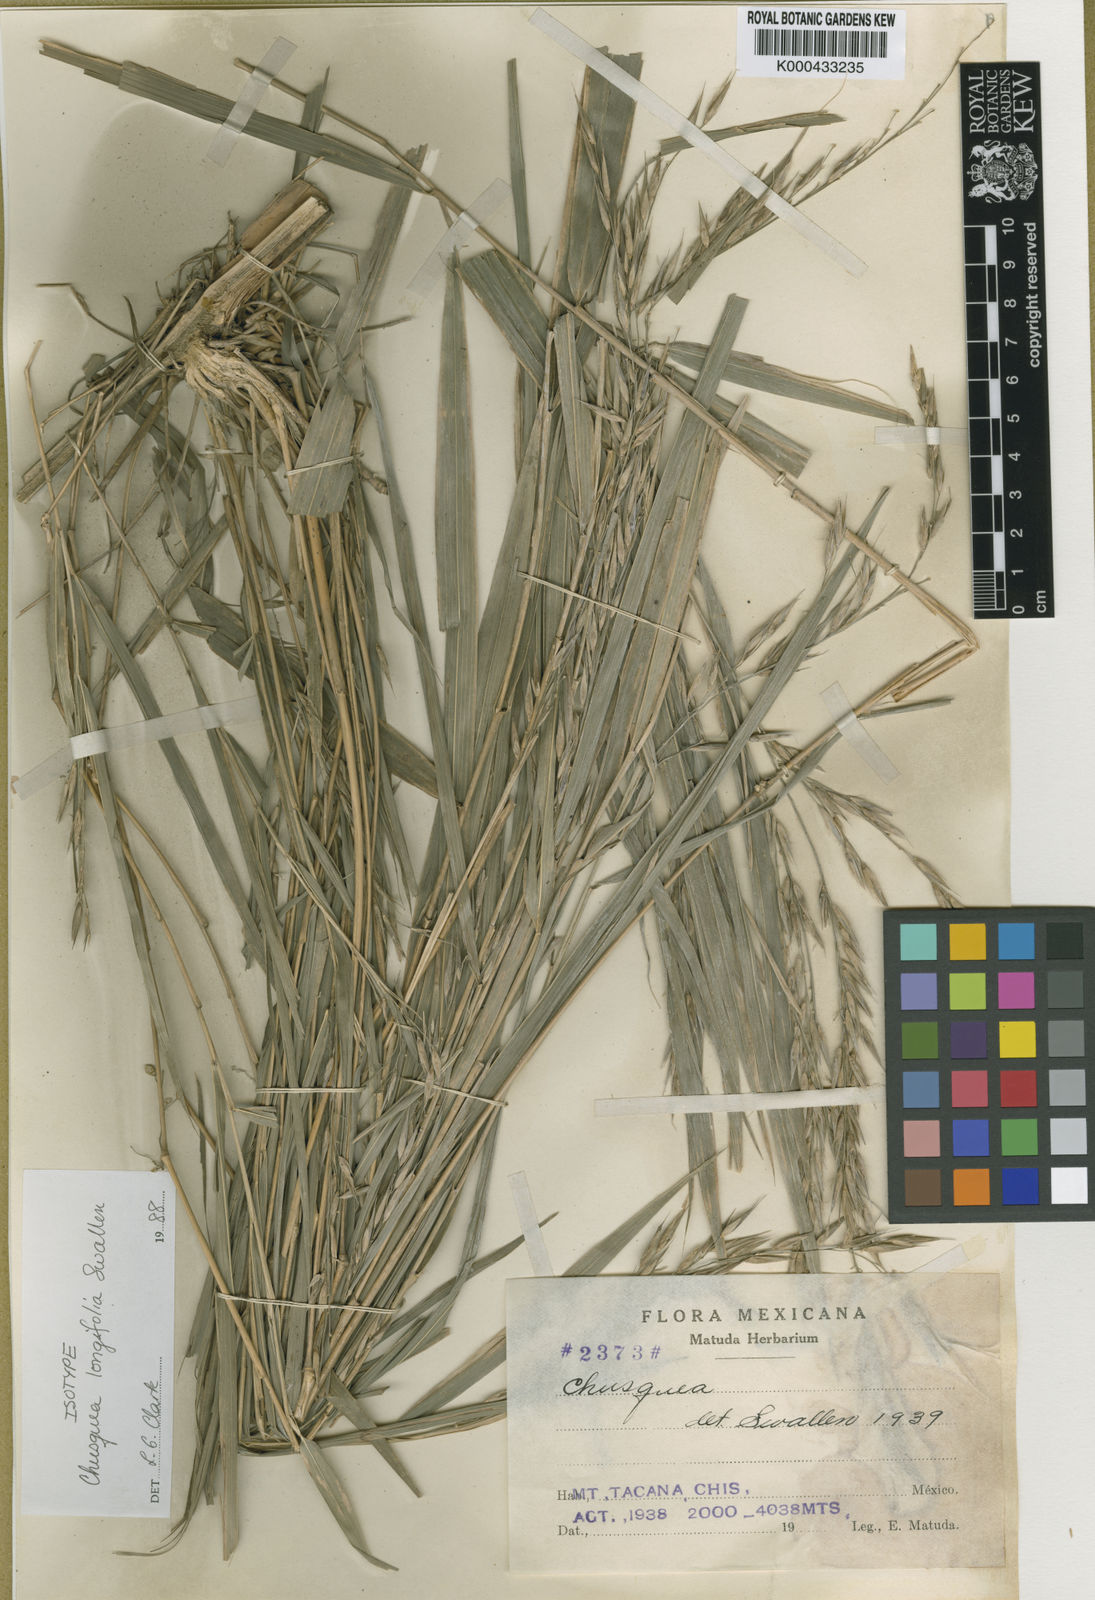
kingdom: Plantae
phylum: Tracheophyta
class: Liliopsida
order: Poales
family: Poaceae
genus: Chusquea
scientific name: Chusquea longifolia
